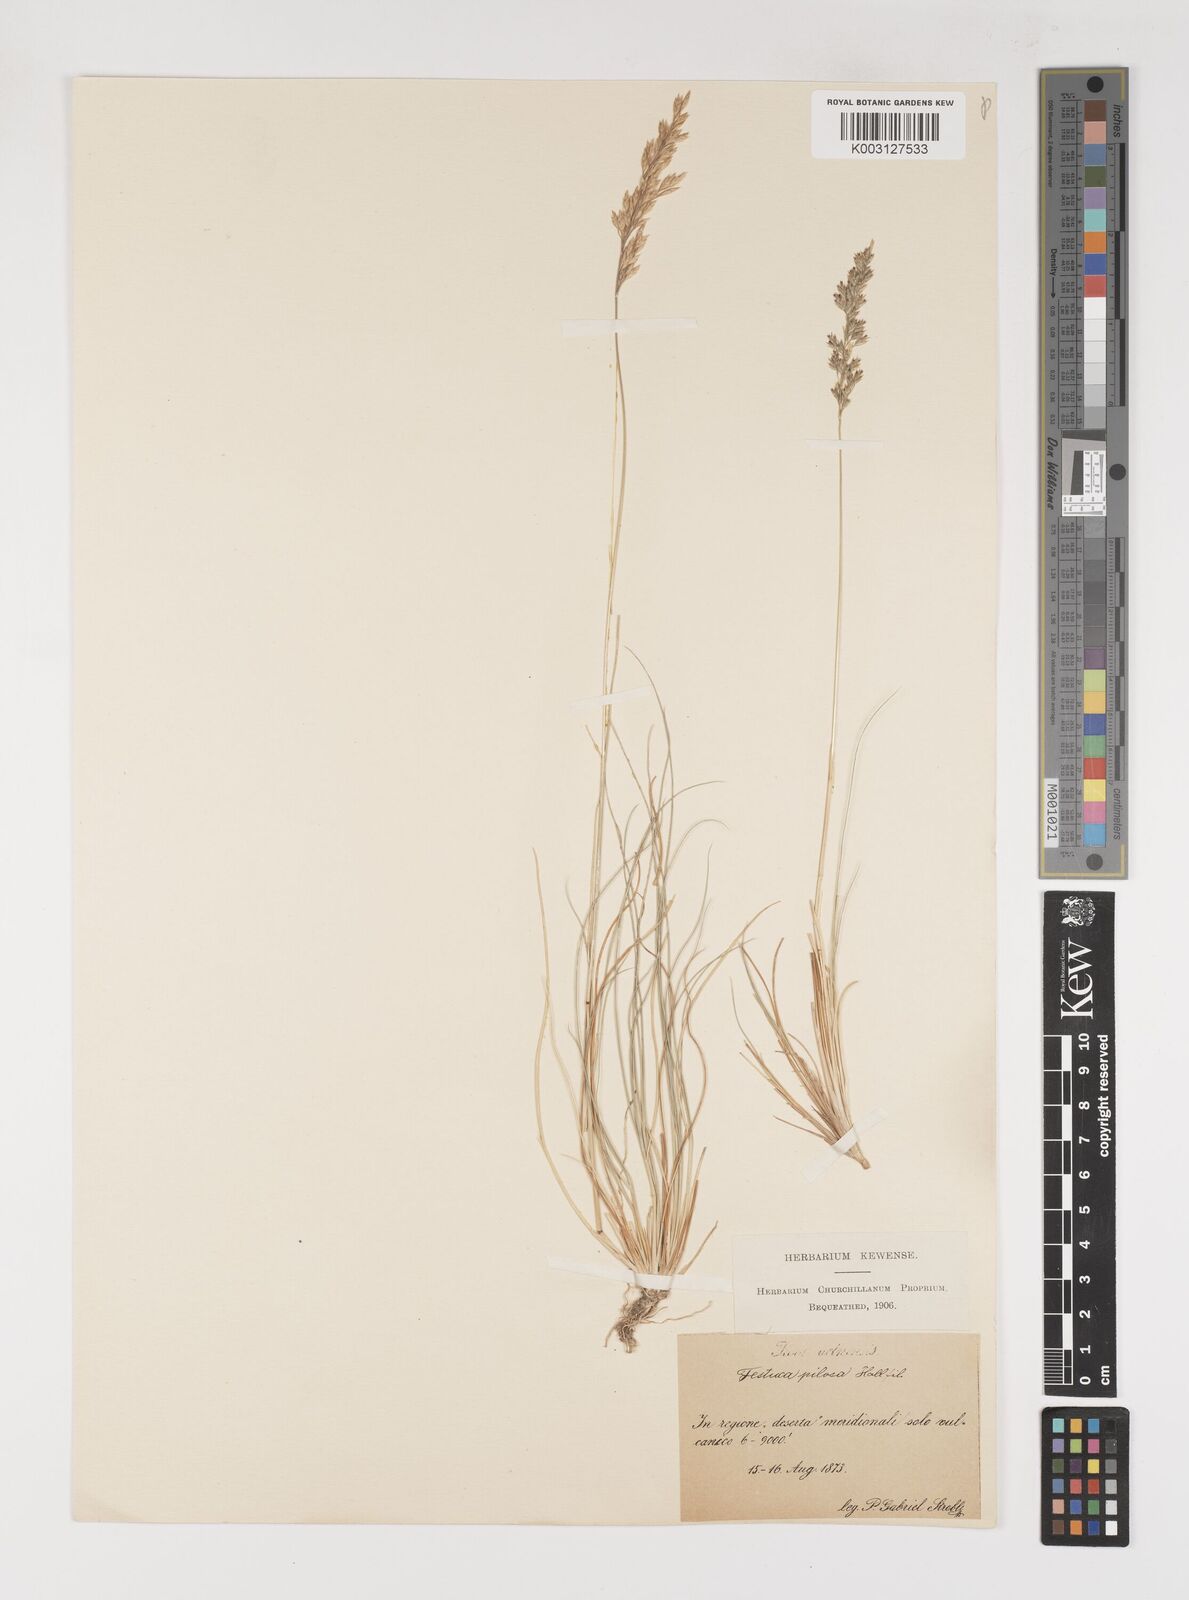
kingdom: Plantae
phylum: Tracheophyta
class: Liliopsida
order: Poales
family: Poaceae
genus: Bellardiochloa
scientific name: Bellardiochloa variegata
